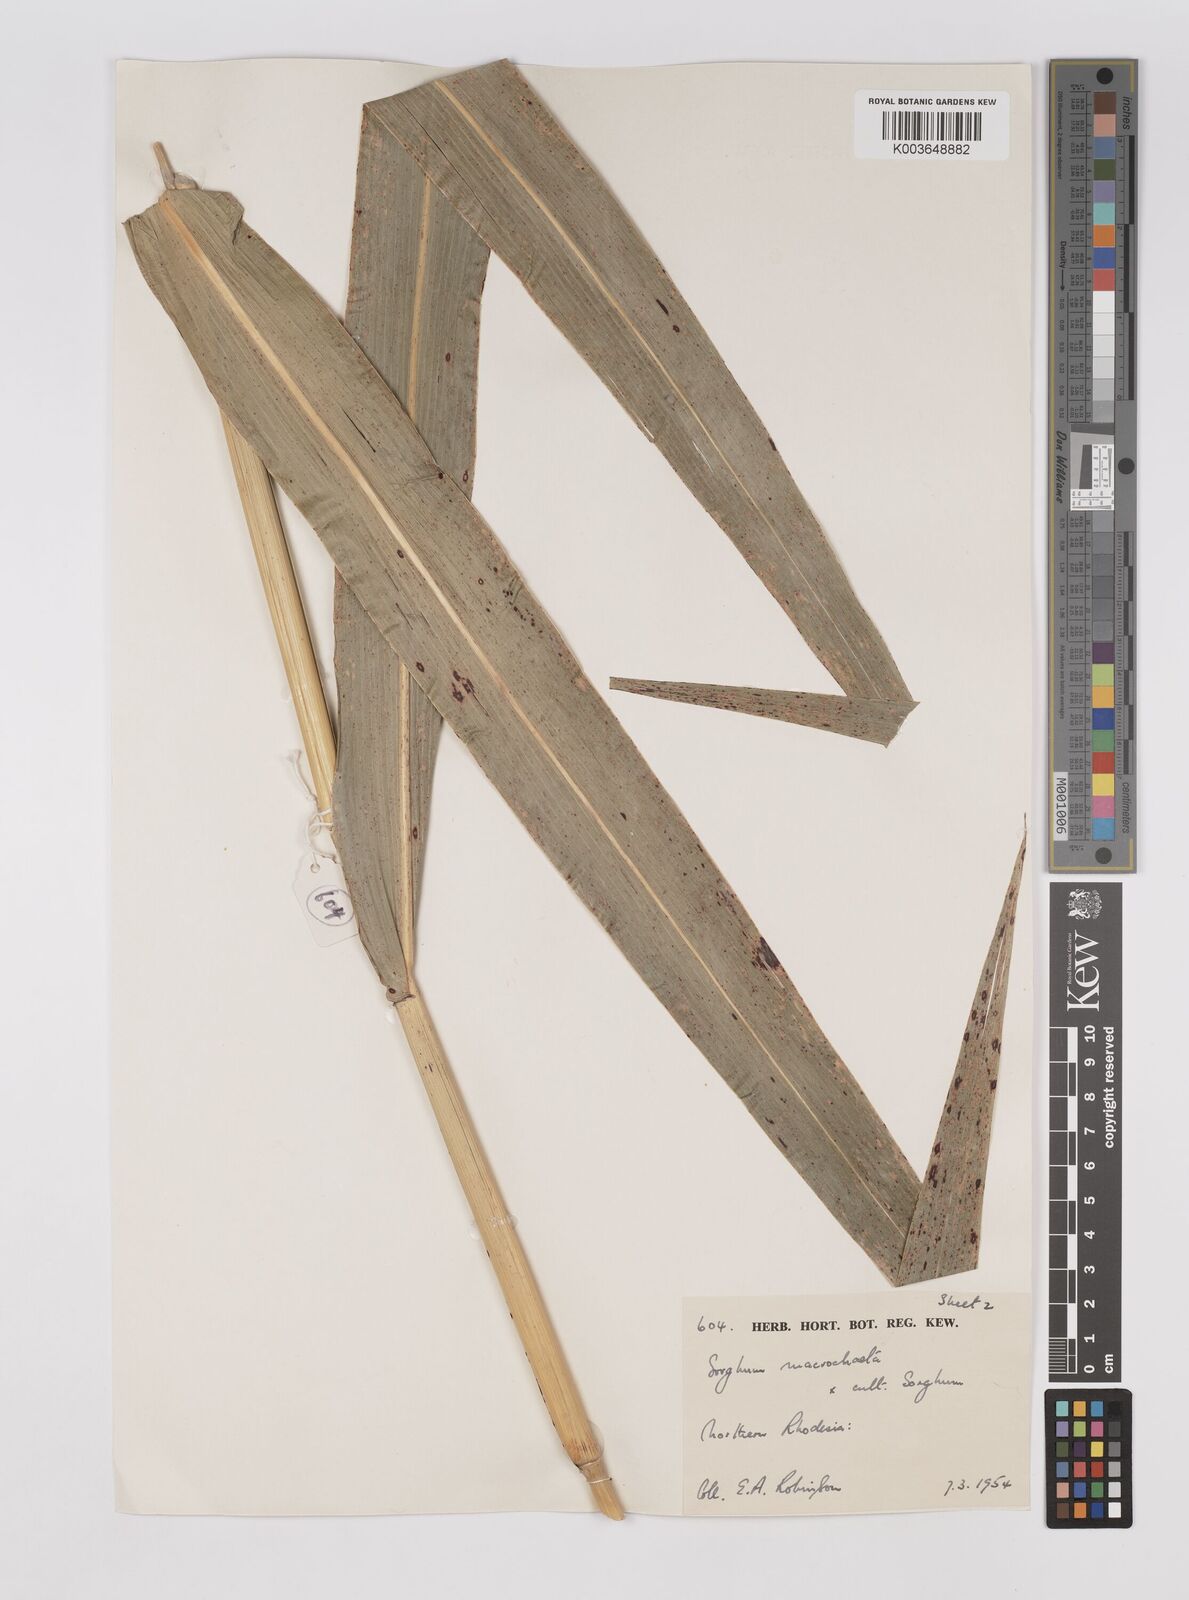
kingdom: Plantae
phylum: Tracheophyta
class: Liliopsida
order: Poales
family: Poaceae
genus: Sorghum
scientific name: Sorghum drummondii
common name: Sudangrass
